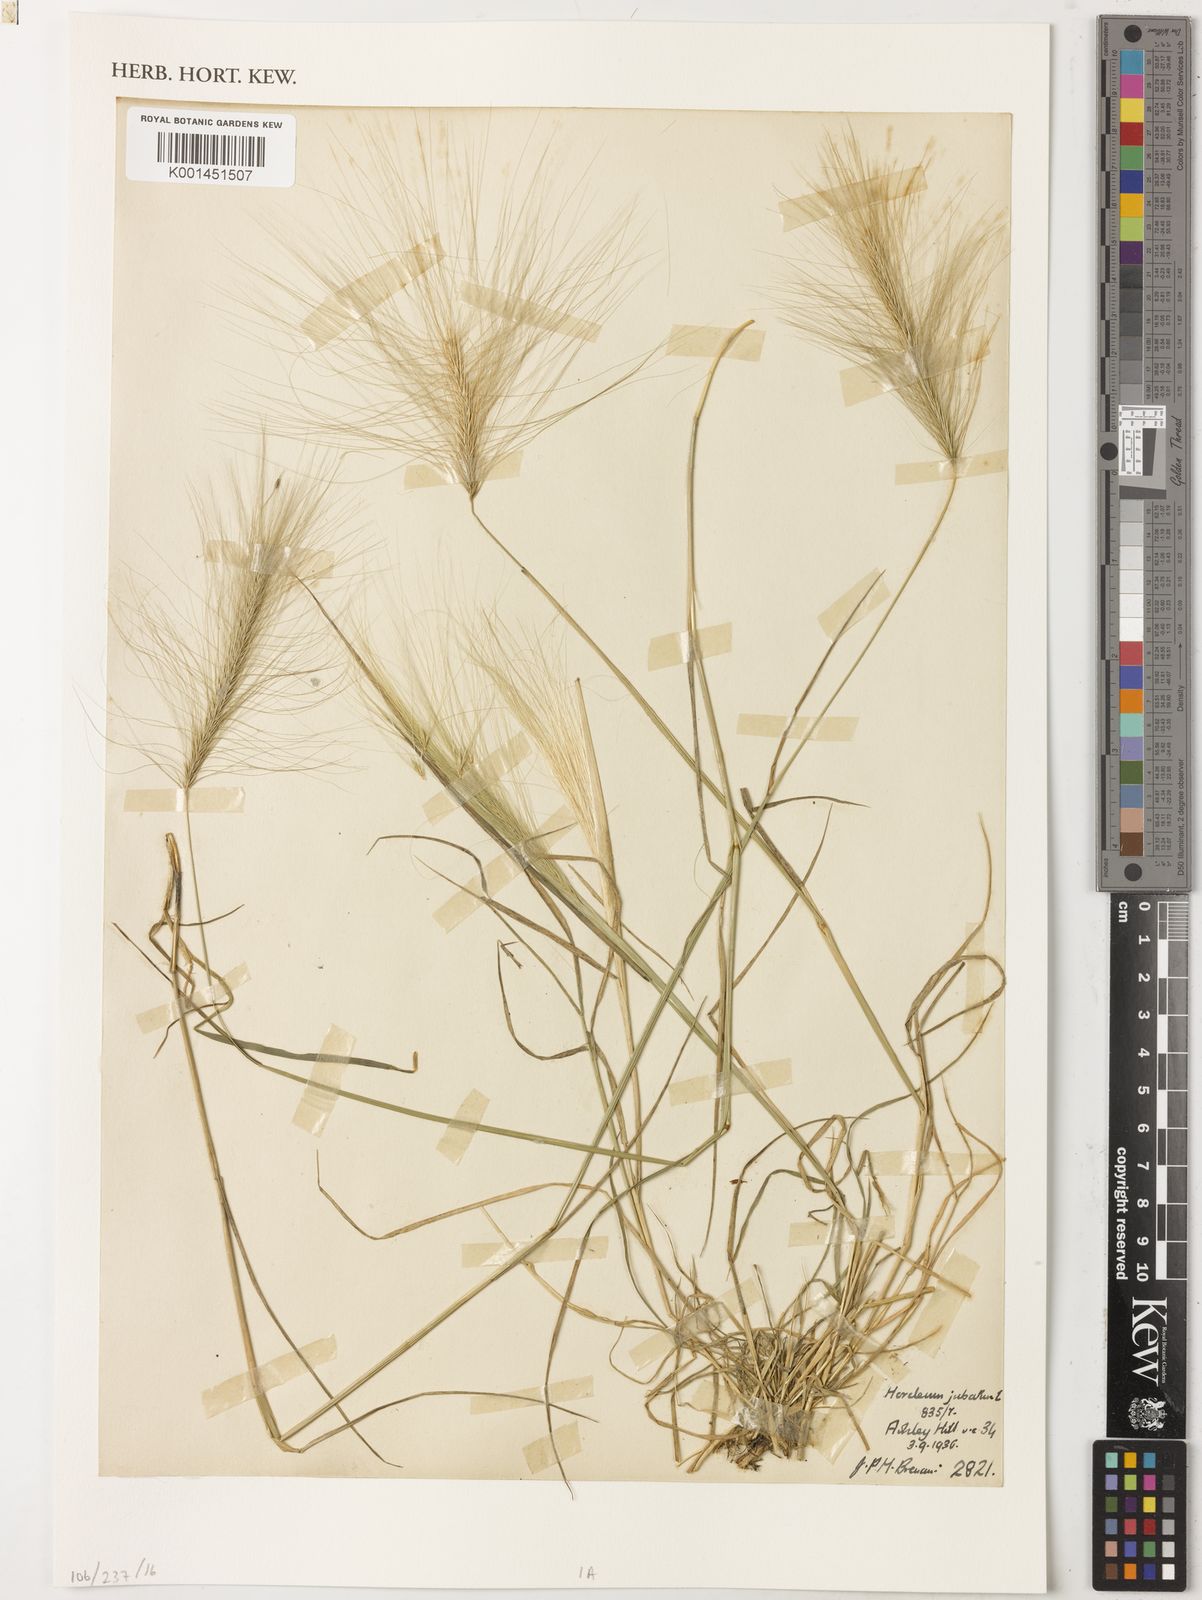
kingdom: Plantae
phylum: Tracheophyta
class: Liliopsida
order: Poales
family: Poaceae
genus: Hordeum
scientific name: Hordeum jubatum
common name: Foxtail barley
